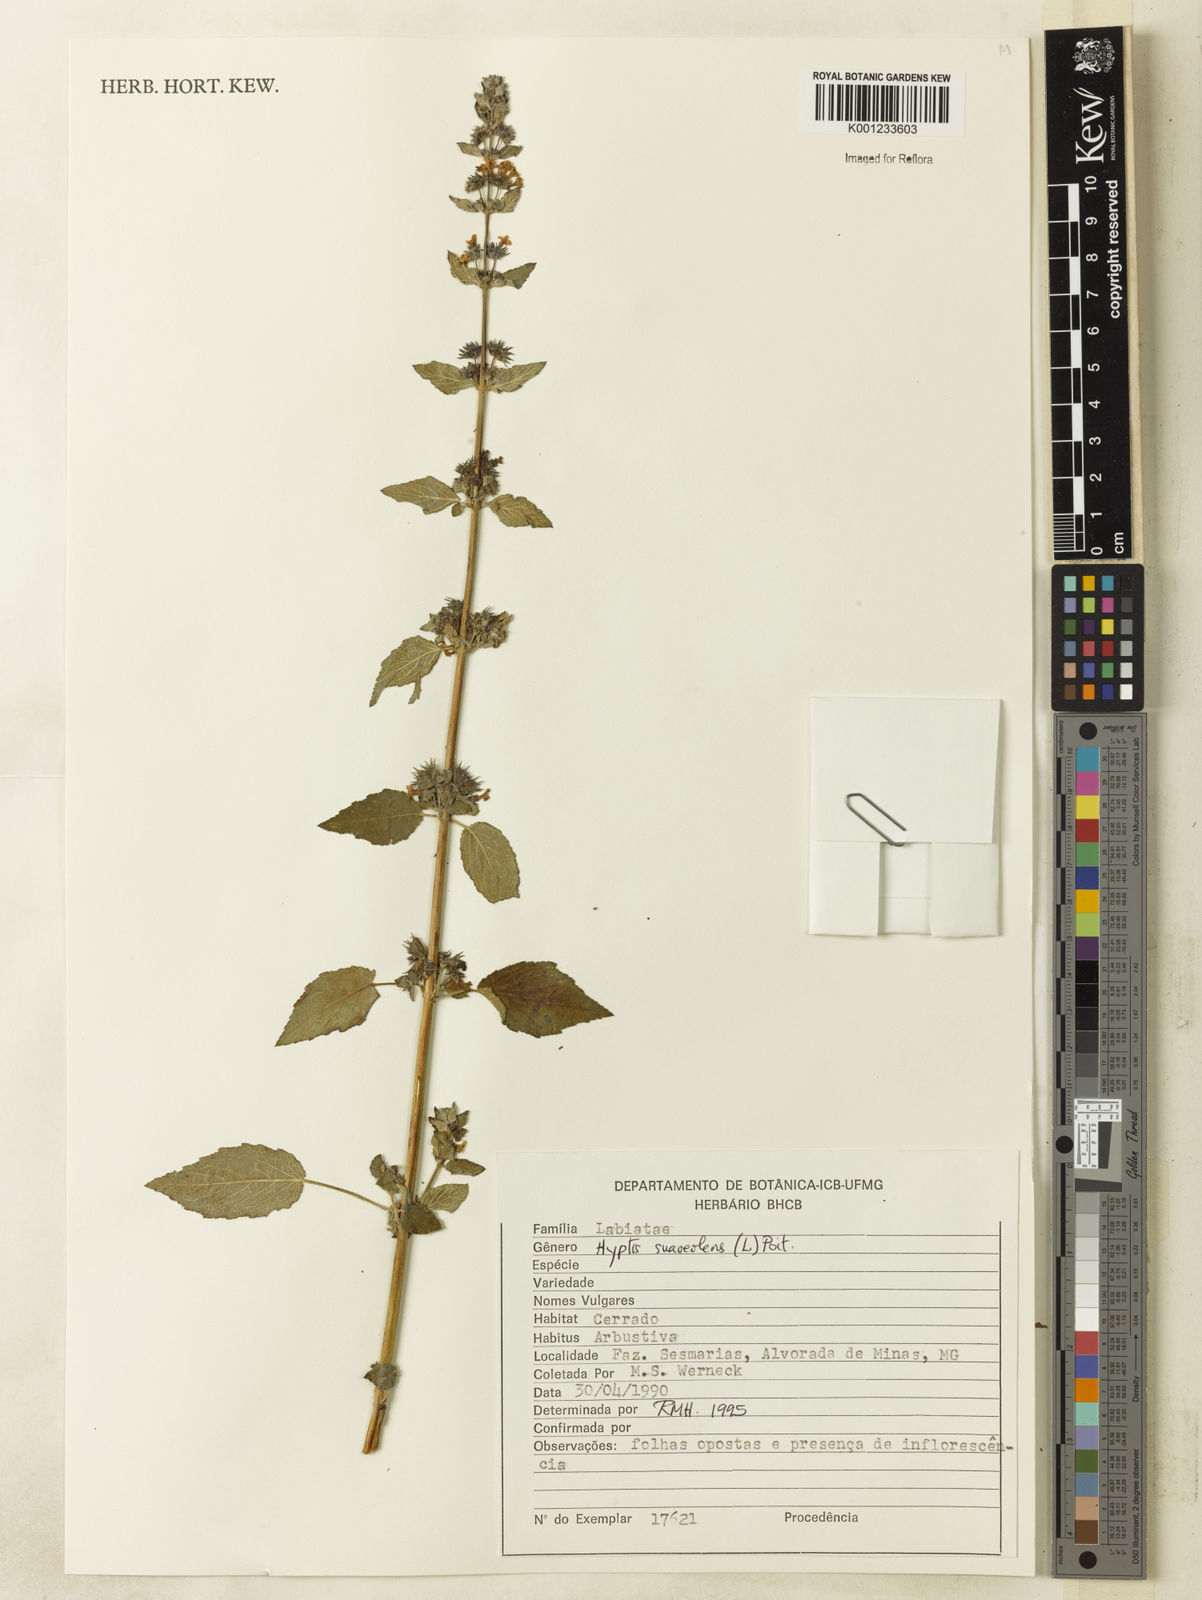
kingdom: Plantae
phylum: Tracheophyta
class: Magnoliopsida
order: Lamiales
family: Lamiaceae
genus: Mesosphaerum
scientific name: Mesosphaerum suaveolens
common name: Pignut
